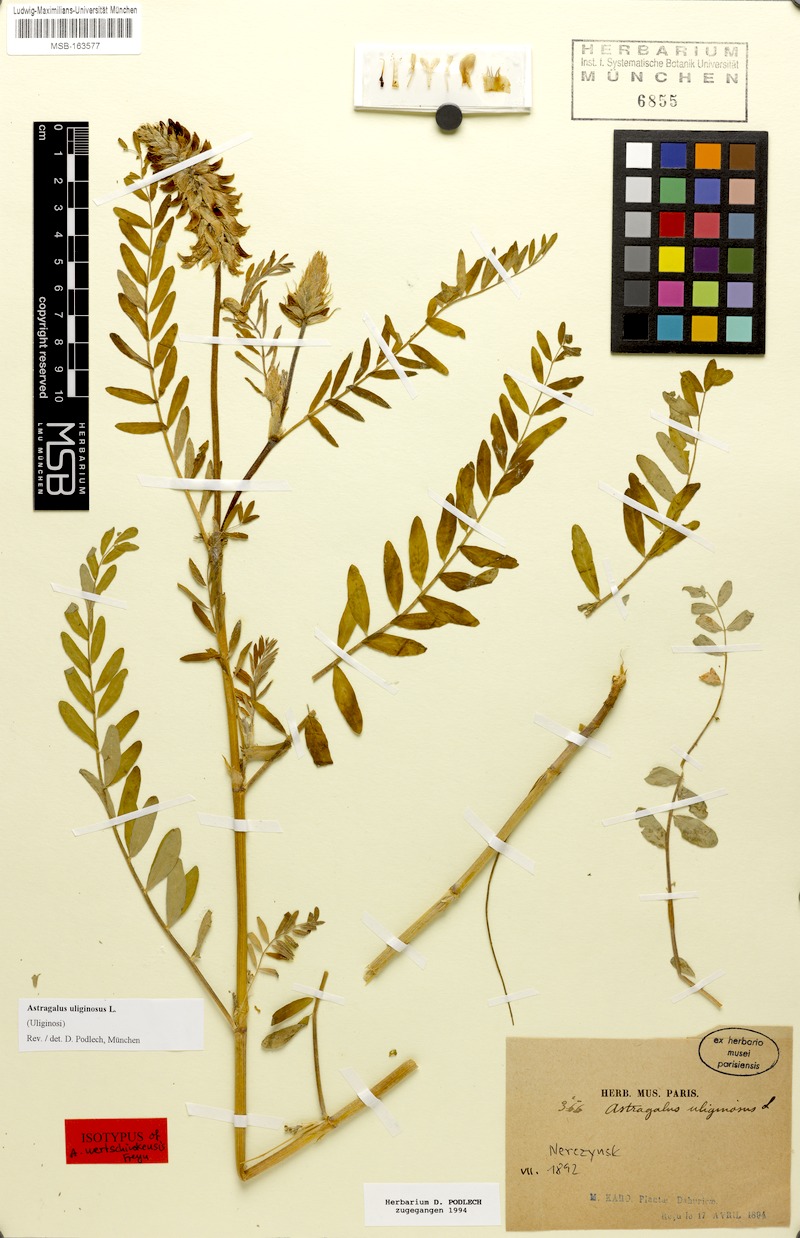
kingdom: Plantae
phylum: Tracheophyta
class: Magnoliopsida
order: Fabales
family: Fabaceae
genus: Astragalus
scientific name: Astragalus uliginosus
